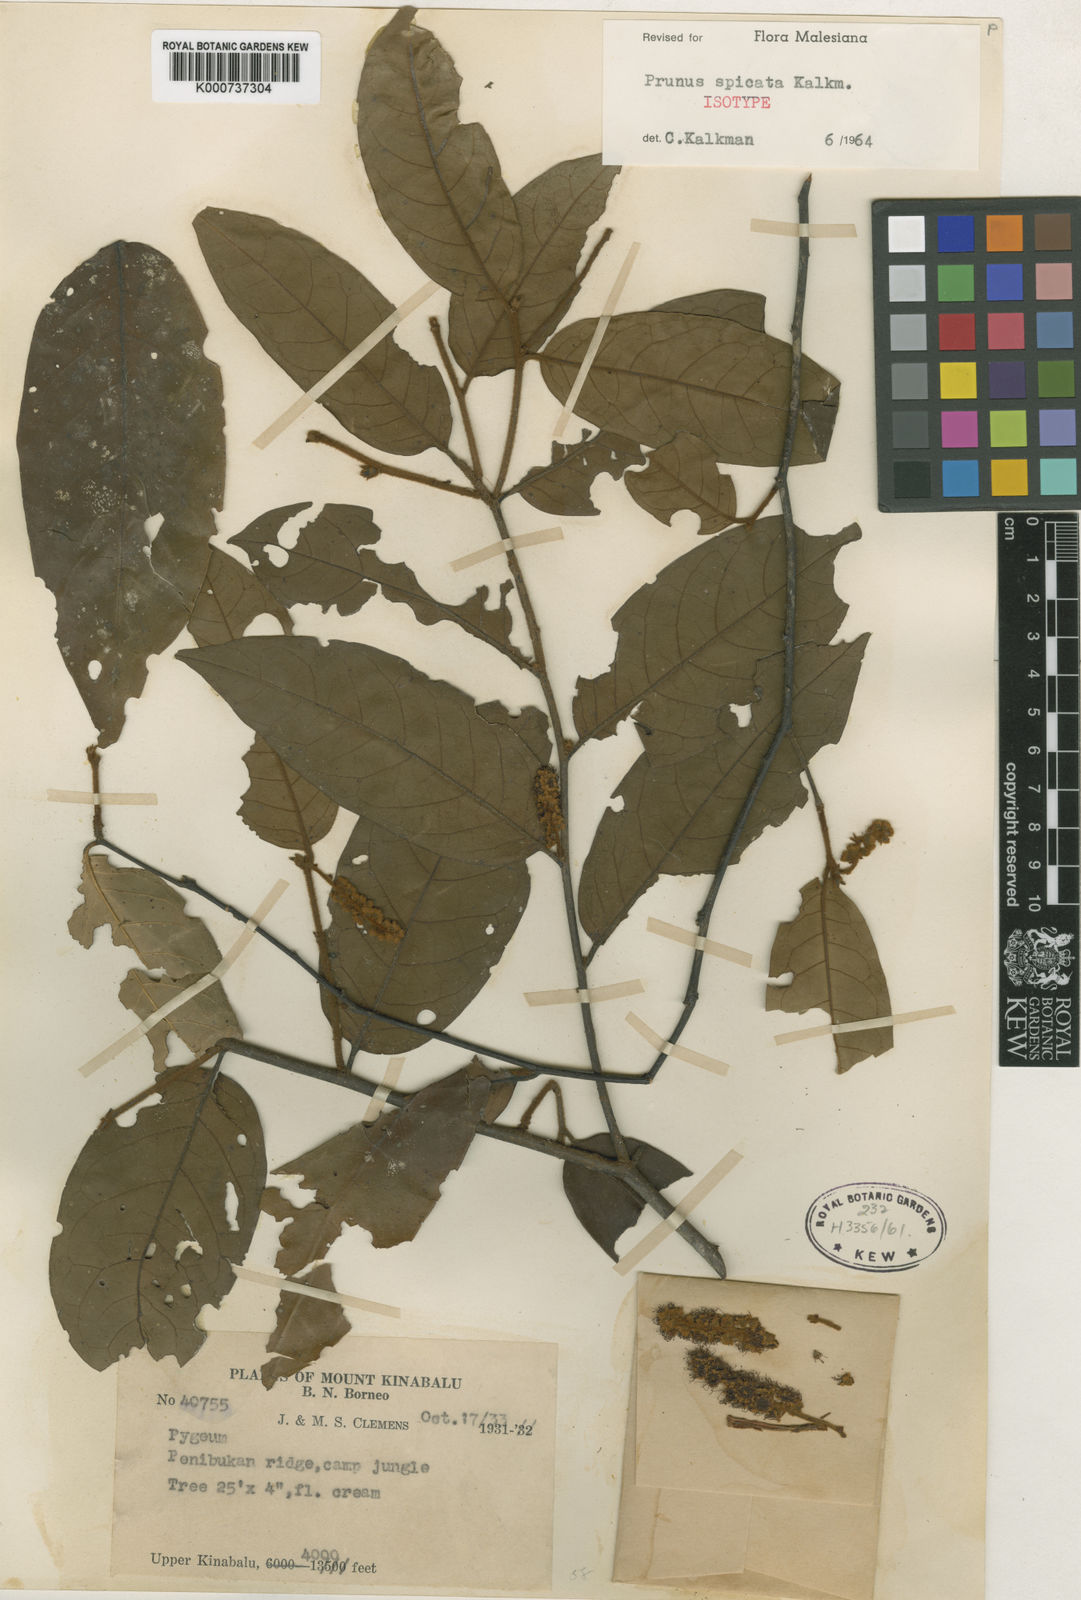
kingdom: Plantae
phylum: Tracheophyta
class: Magnoliopsida
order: Rosales
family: Rosaceae
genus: Prunus
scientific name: Prunus spicata
